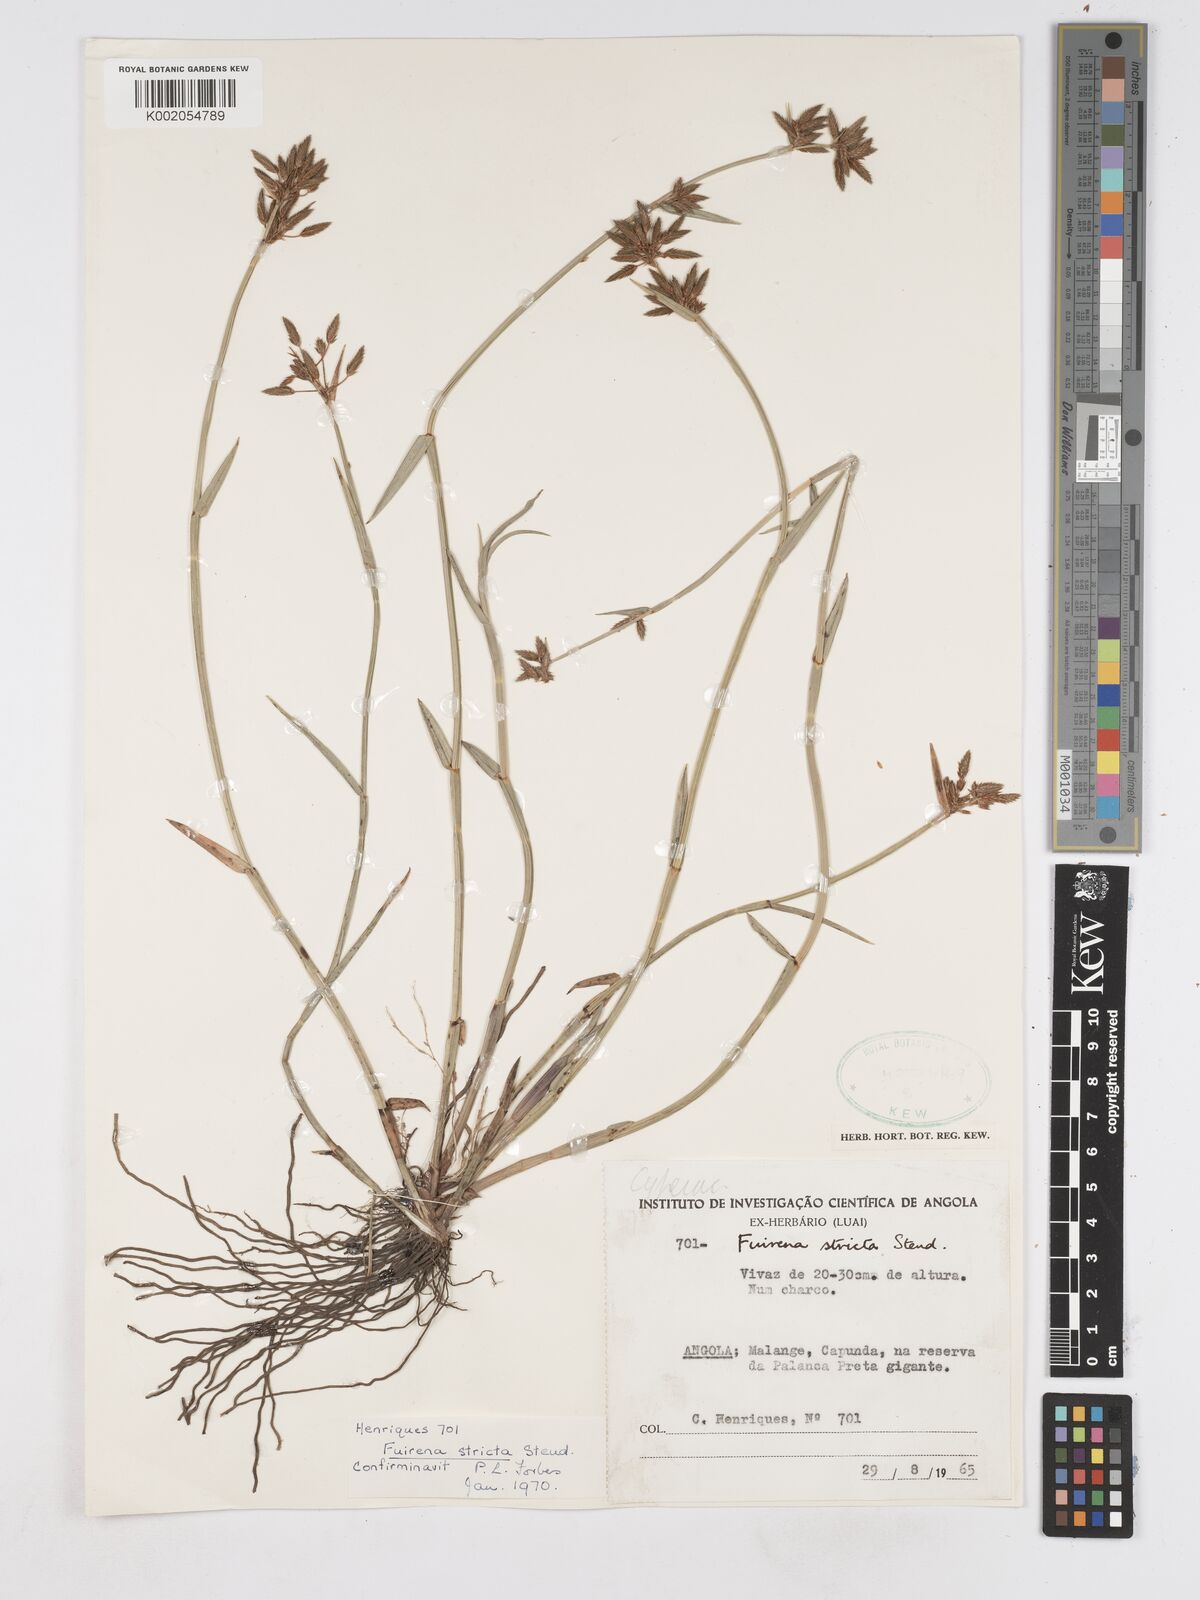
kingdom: Plantae
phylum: Tracheophyta
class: Liliopsida
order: Poales
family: Cyperaceae
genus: Fuirena
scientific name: Fuirena stricta
